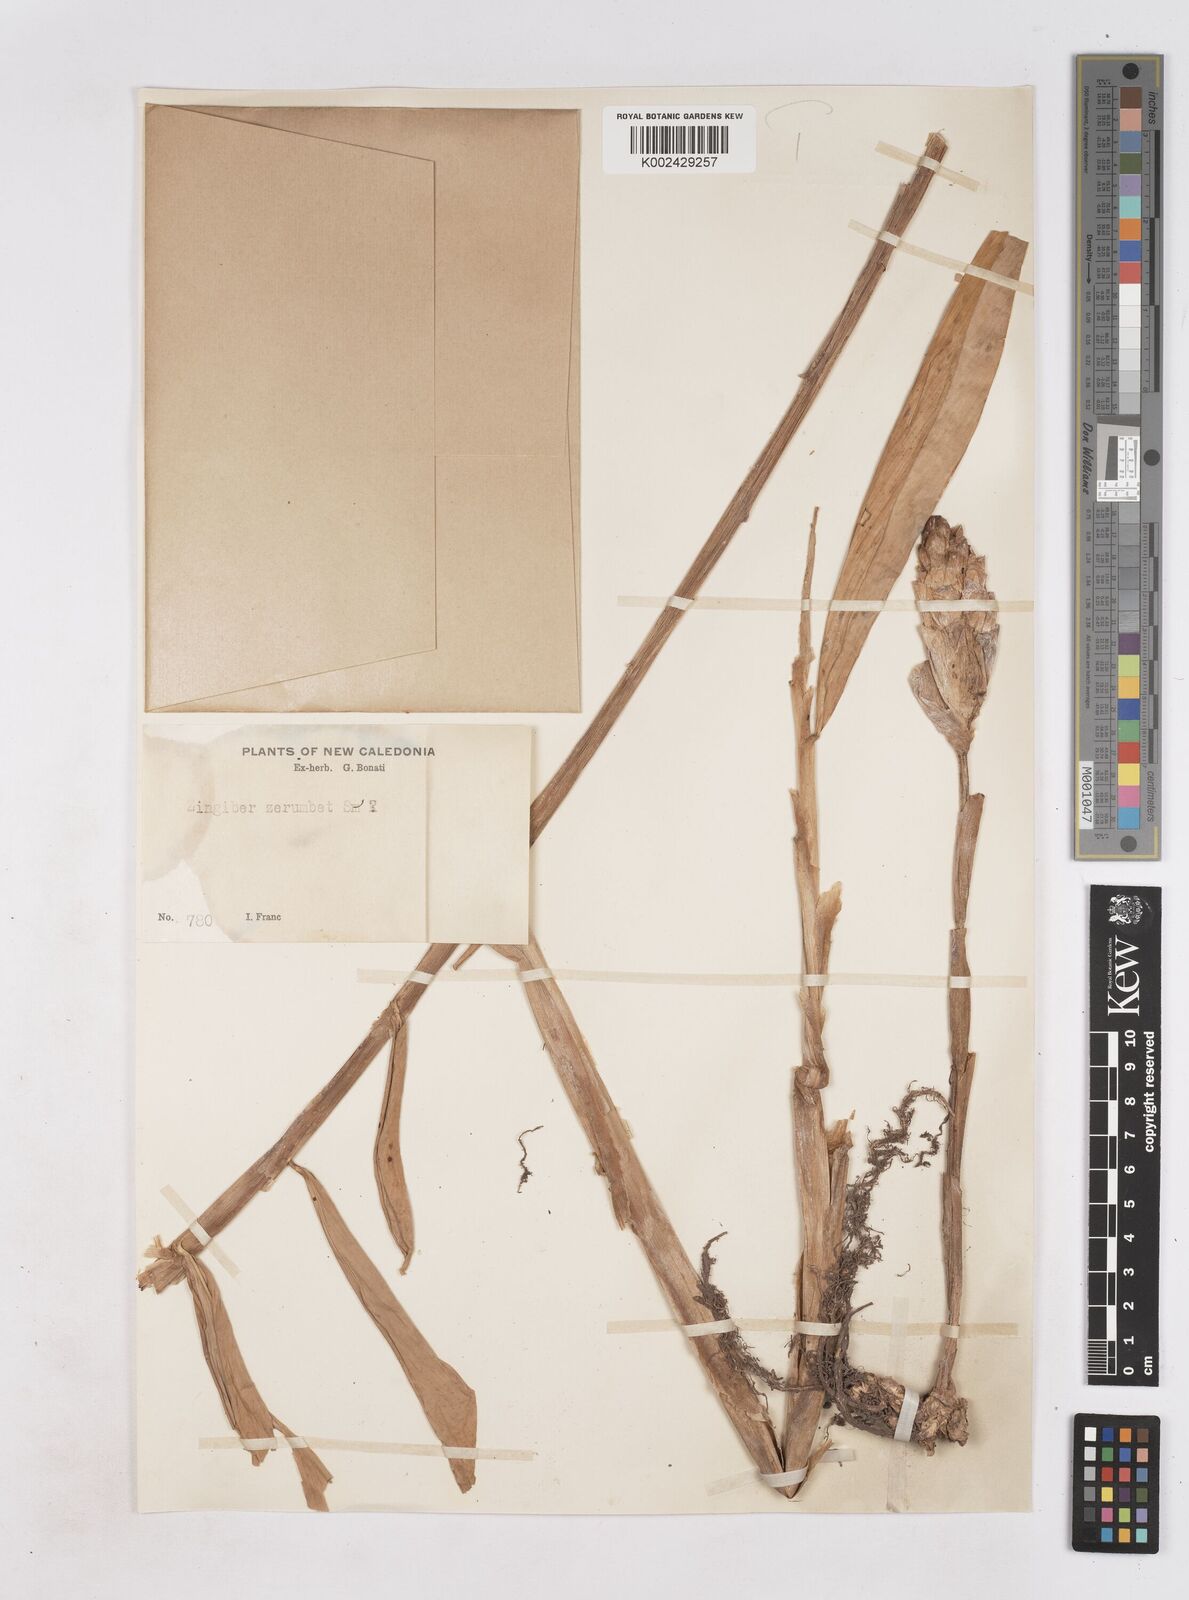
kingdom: Plantae
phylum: Tracheophyta
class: Liliopsida
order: Zingiberales
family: Zingiberaceae
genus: Zingiber
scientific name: Zingiber zerumbet
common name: Bitter ginger
